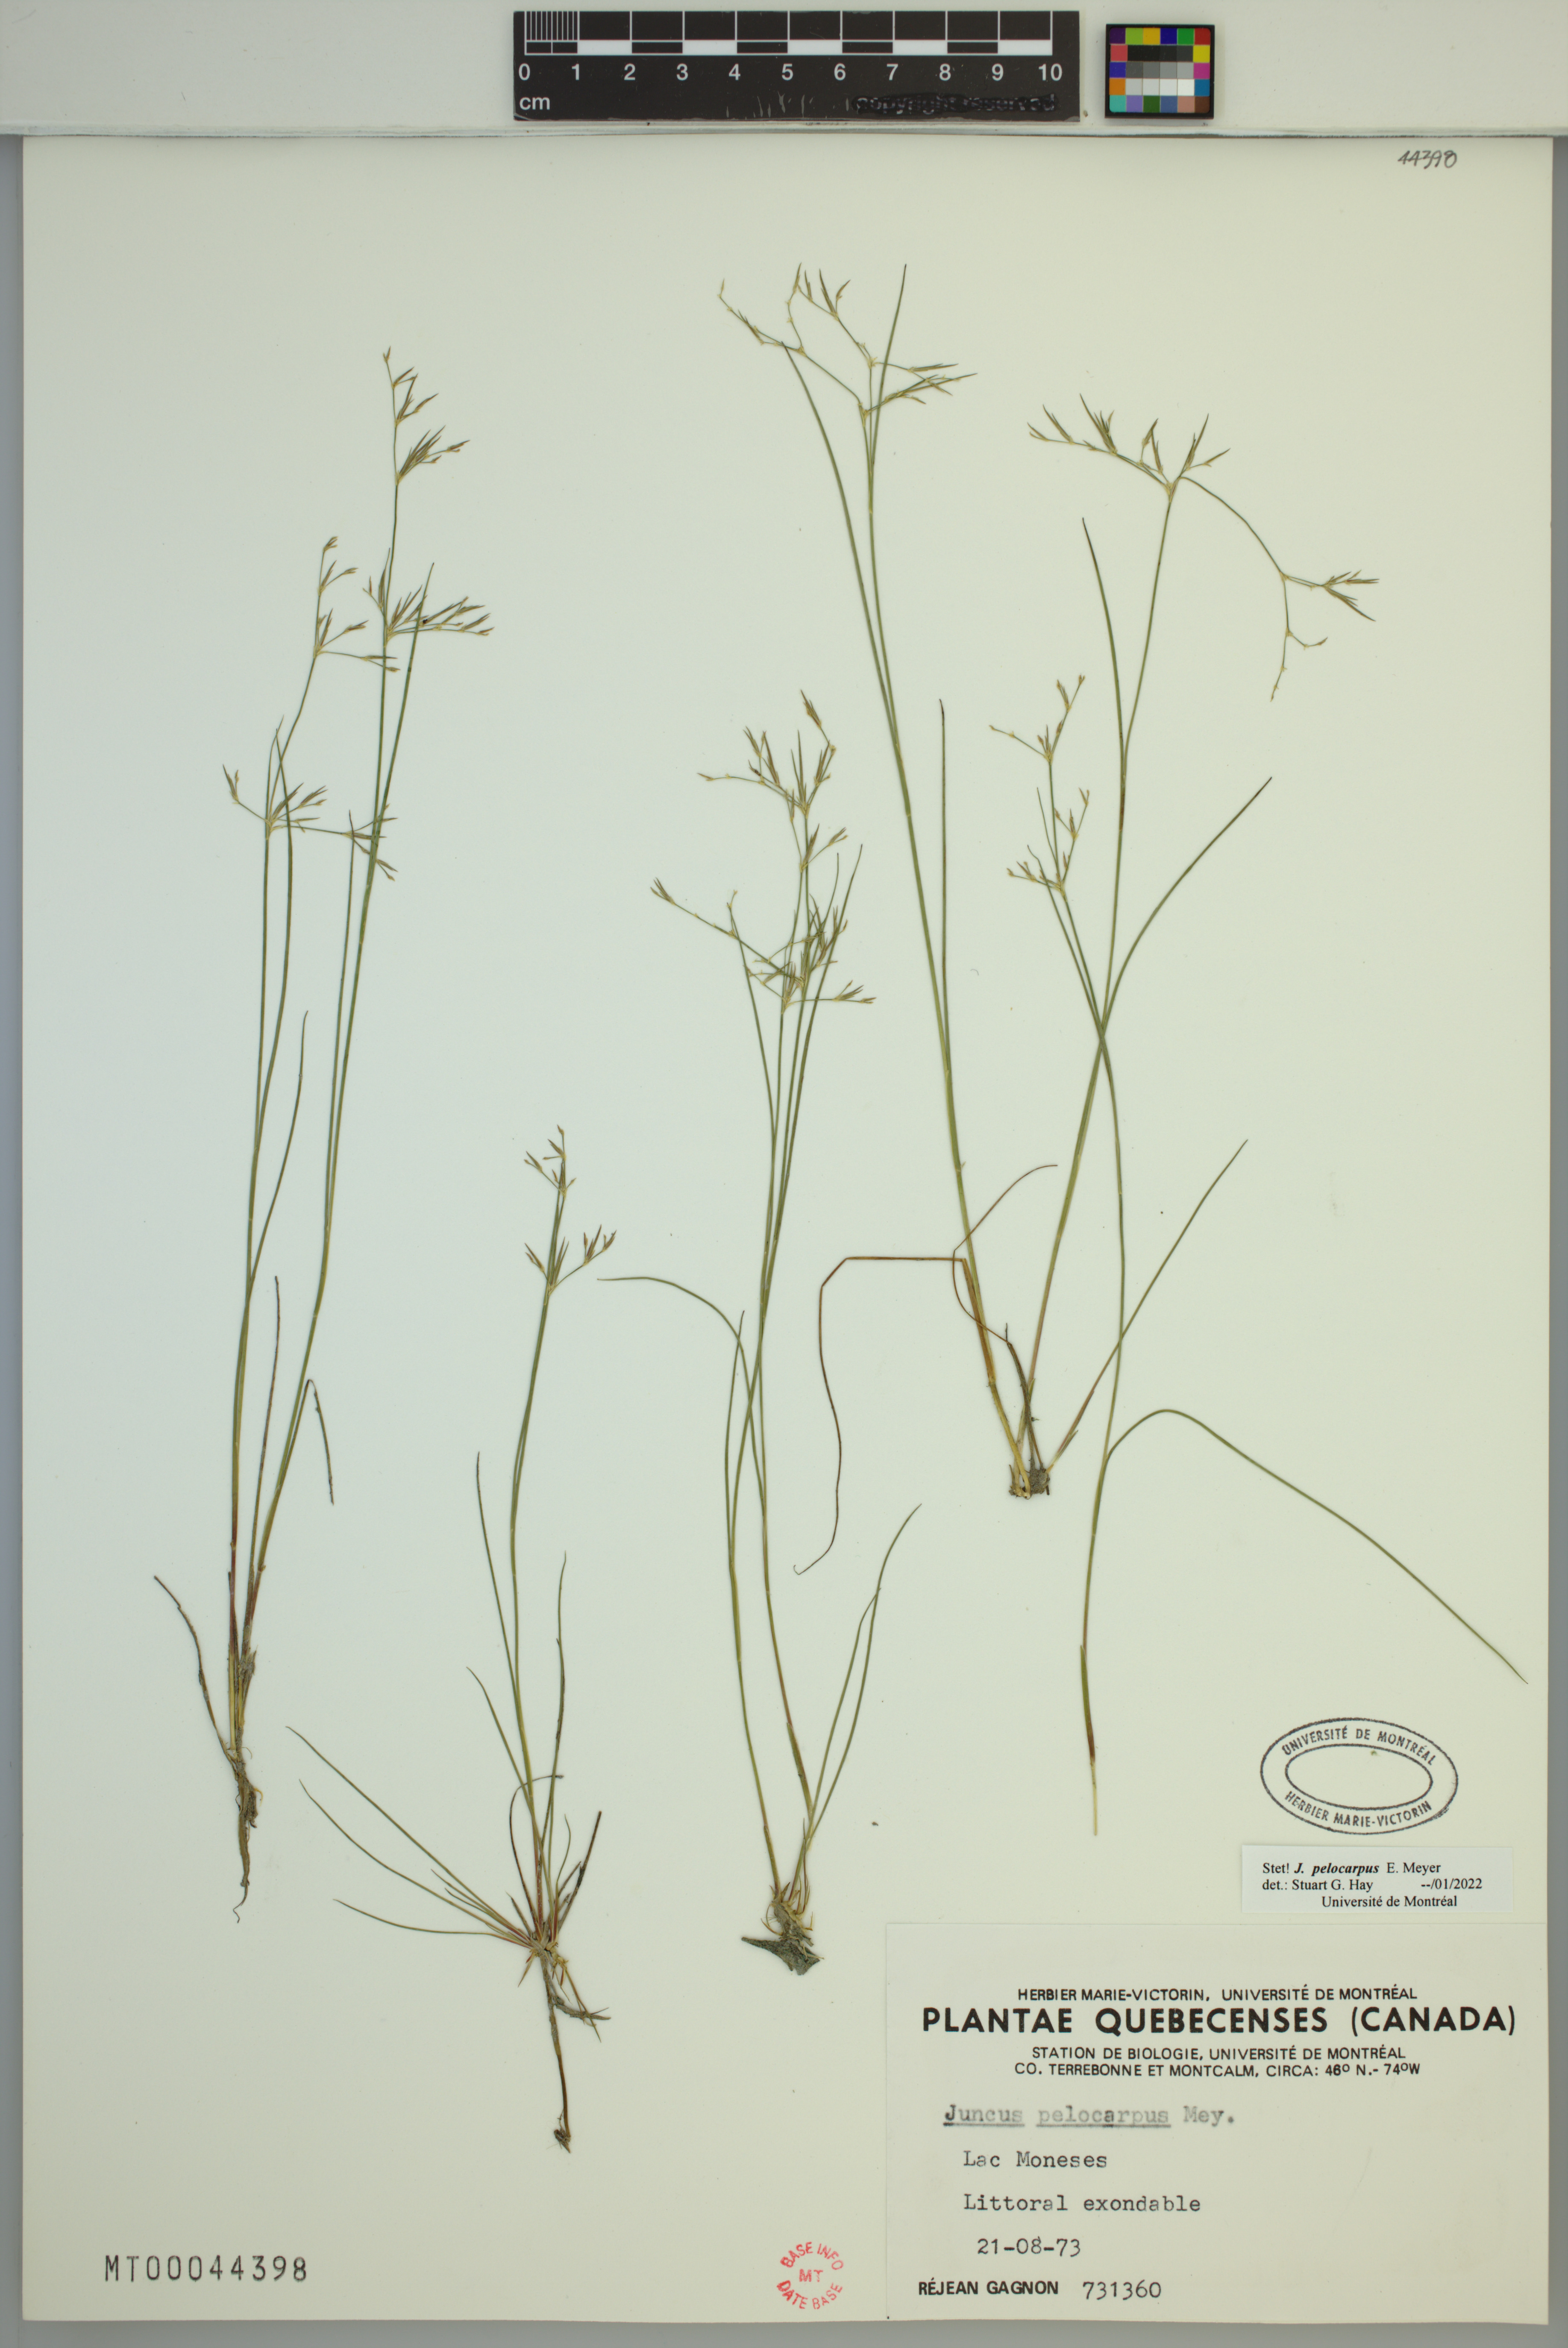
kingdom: Plantae
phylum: Tracheophyta
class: Liliopsida
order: Poales
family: Juncaceae
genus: Juncus
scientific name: Juncus pelocarpus
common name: Brown-fruited rush
